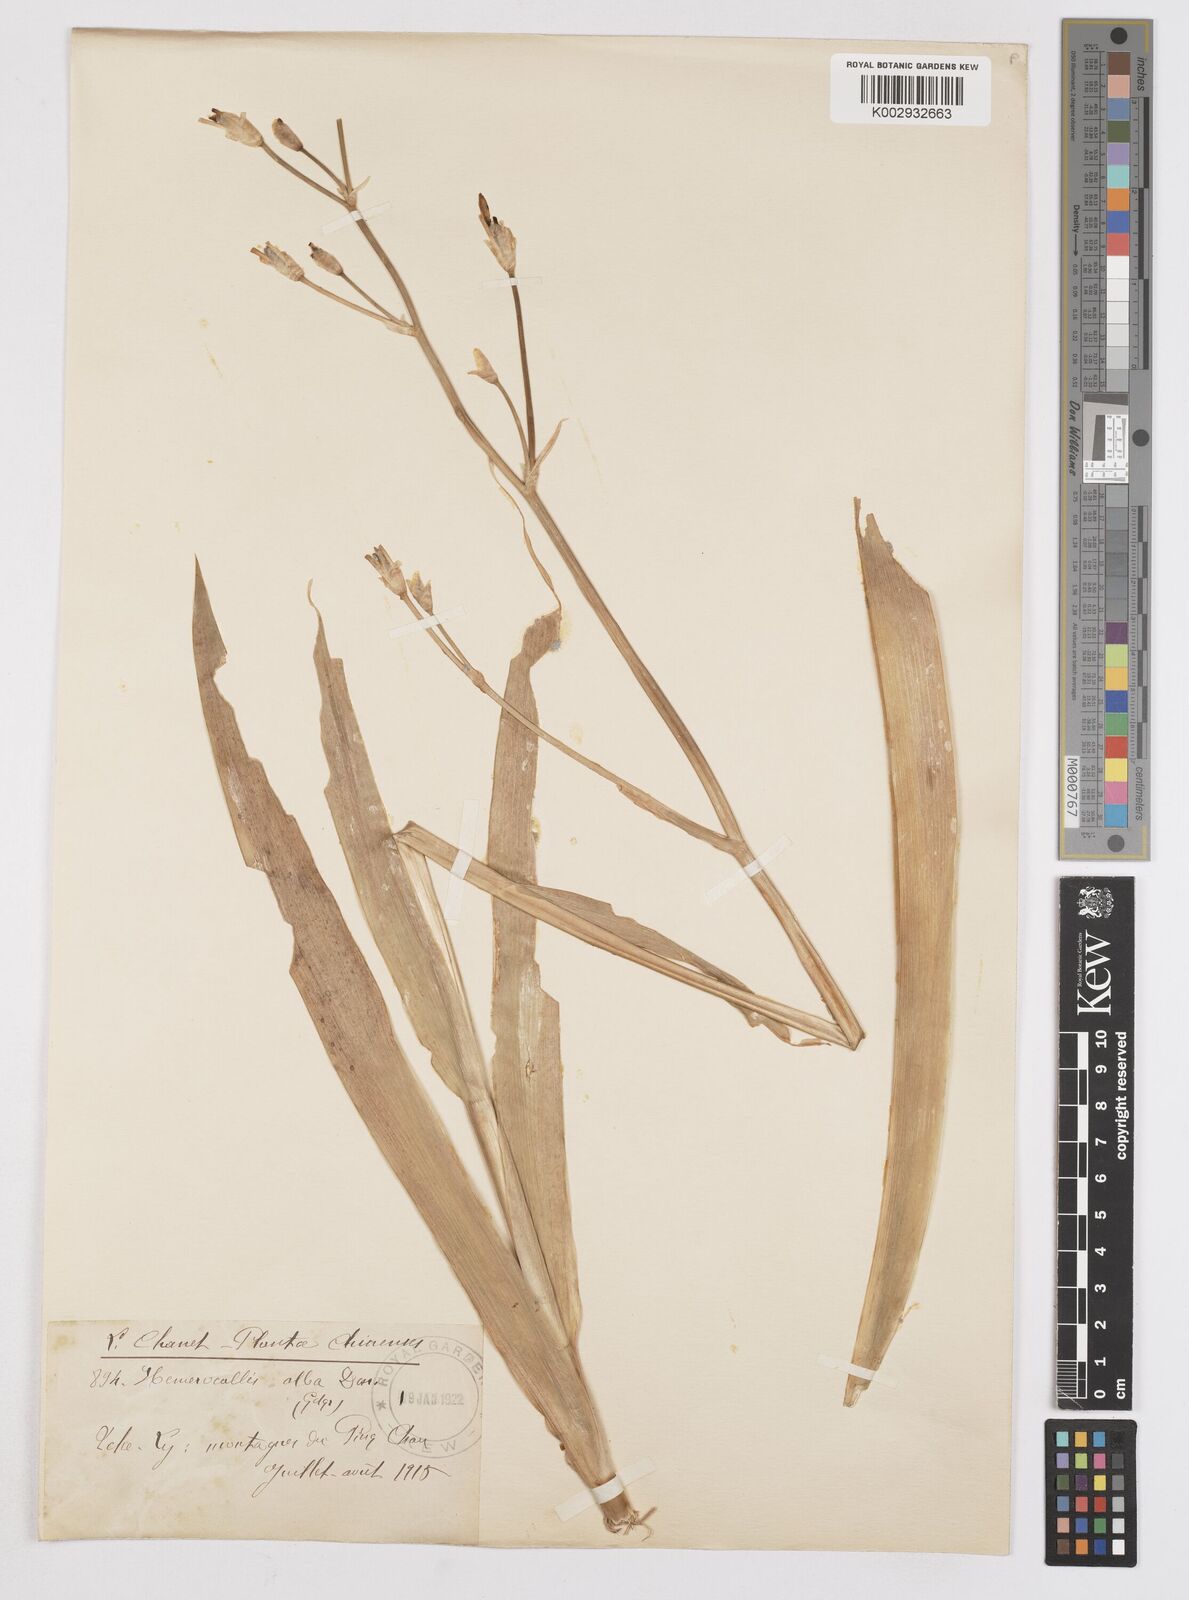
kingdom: Plantae
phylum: Tracheophyta
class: Liliopsida
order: Asparagales
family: Iridaceae
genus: Iris
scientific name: Iris
